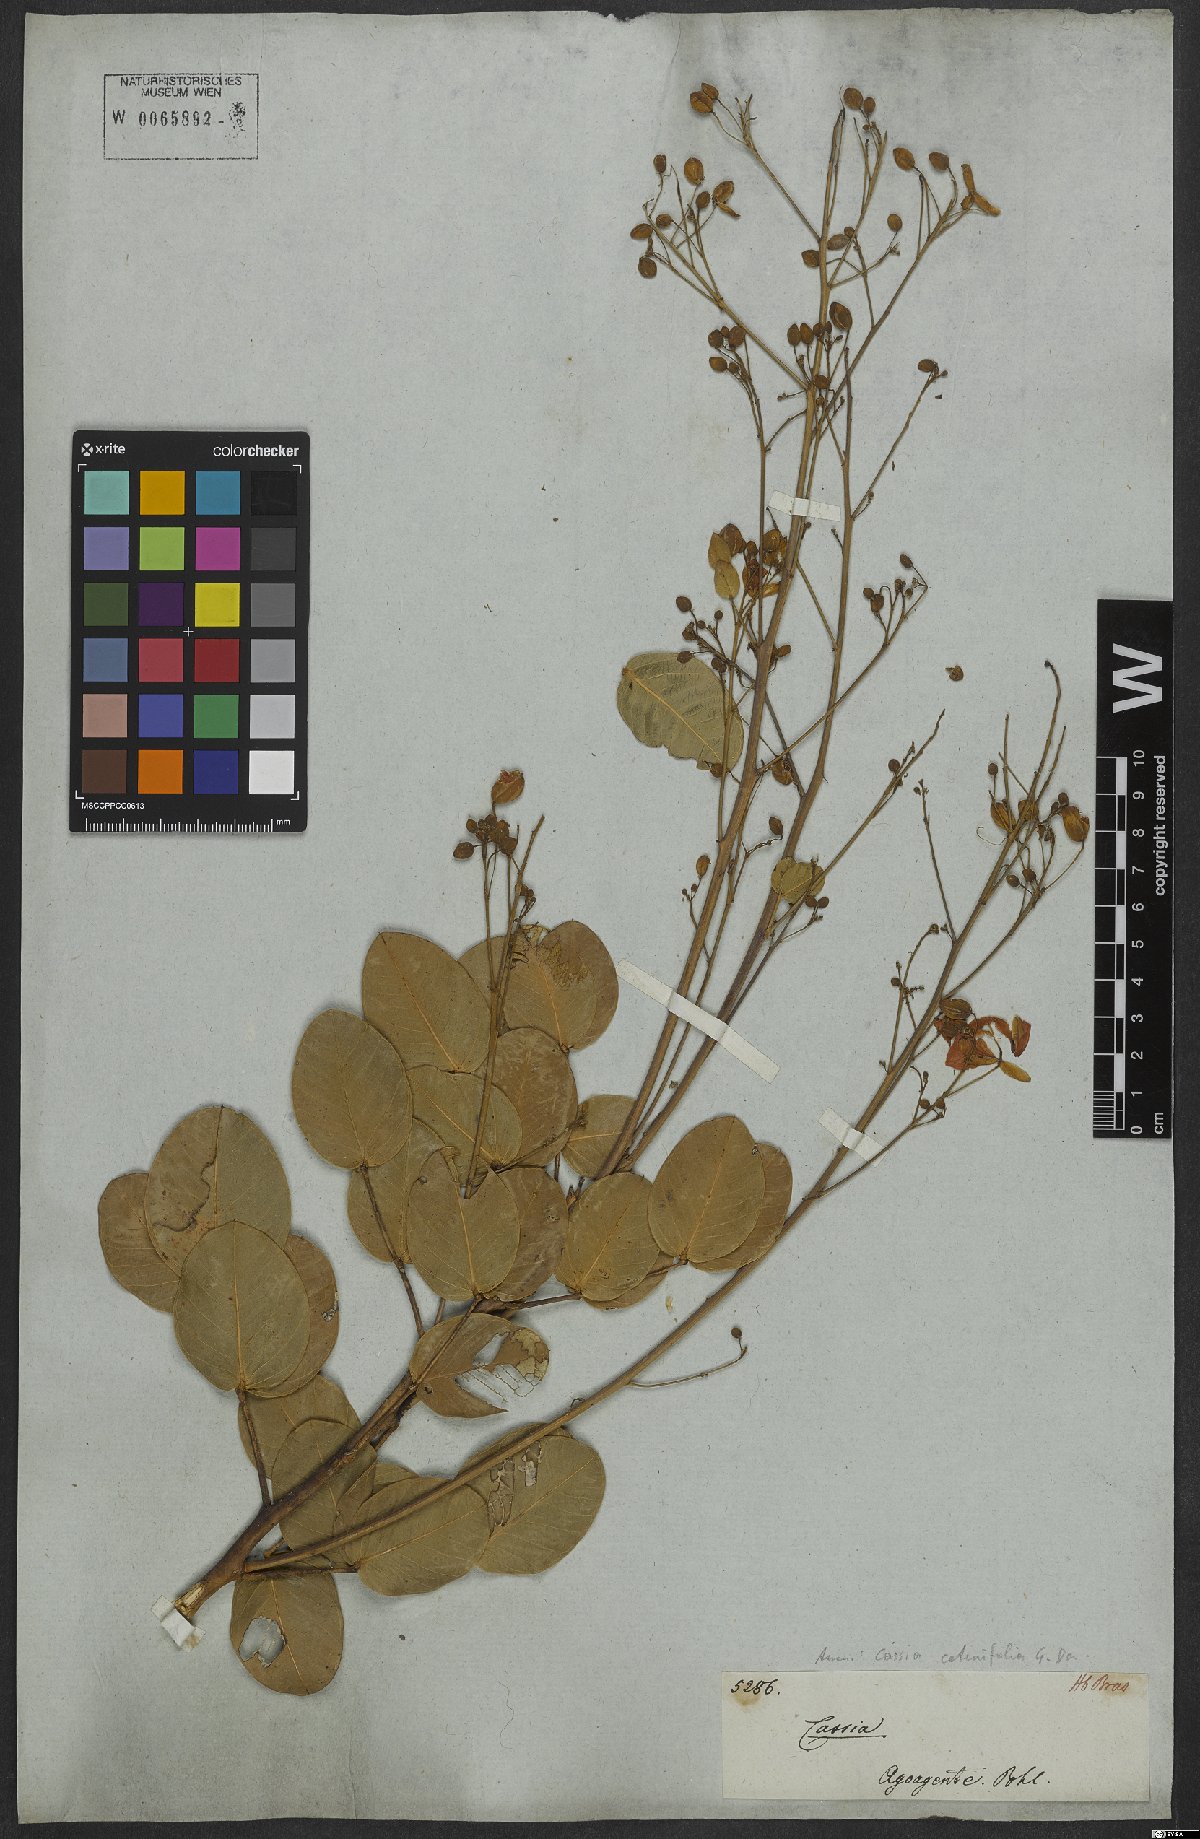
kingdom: Plantae
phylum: Tracheophyta
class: Magnoliopsida
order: Fabales
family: Fabaceae
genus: Chamaecrista
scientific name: Chamaecrista cotinifolia
